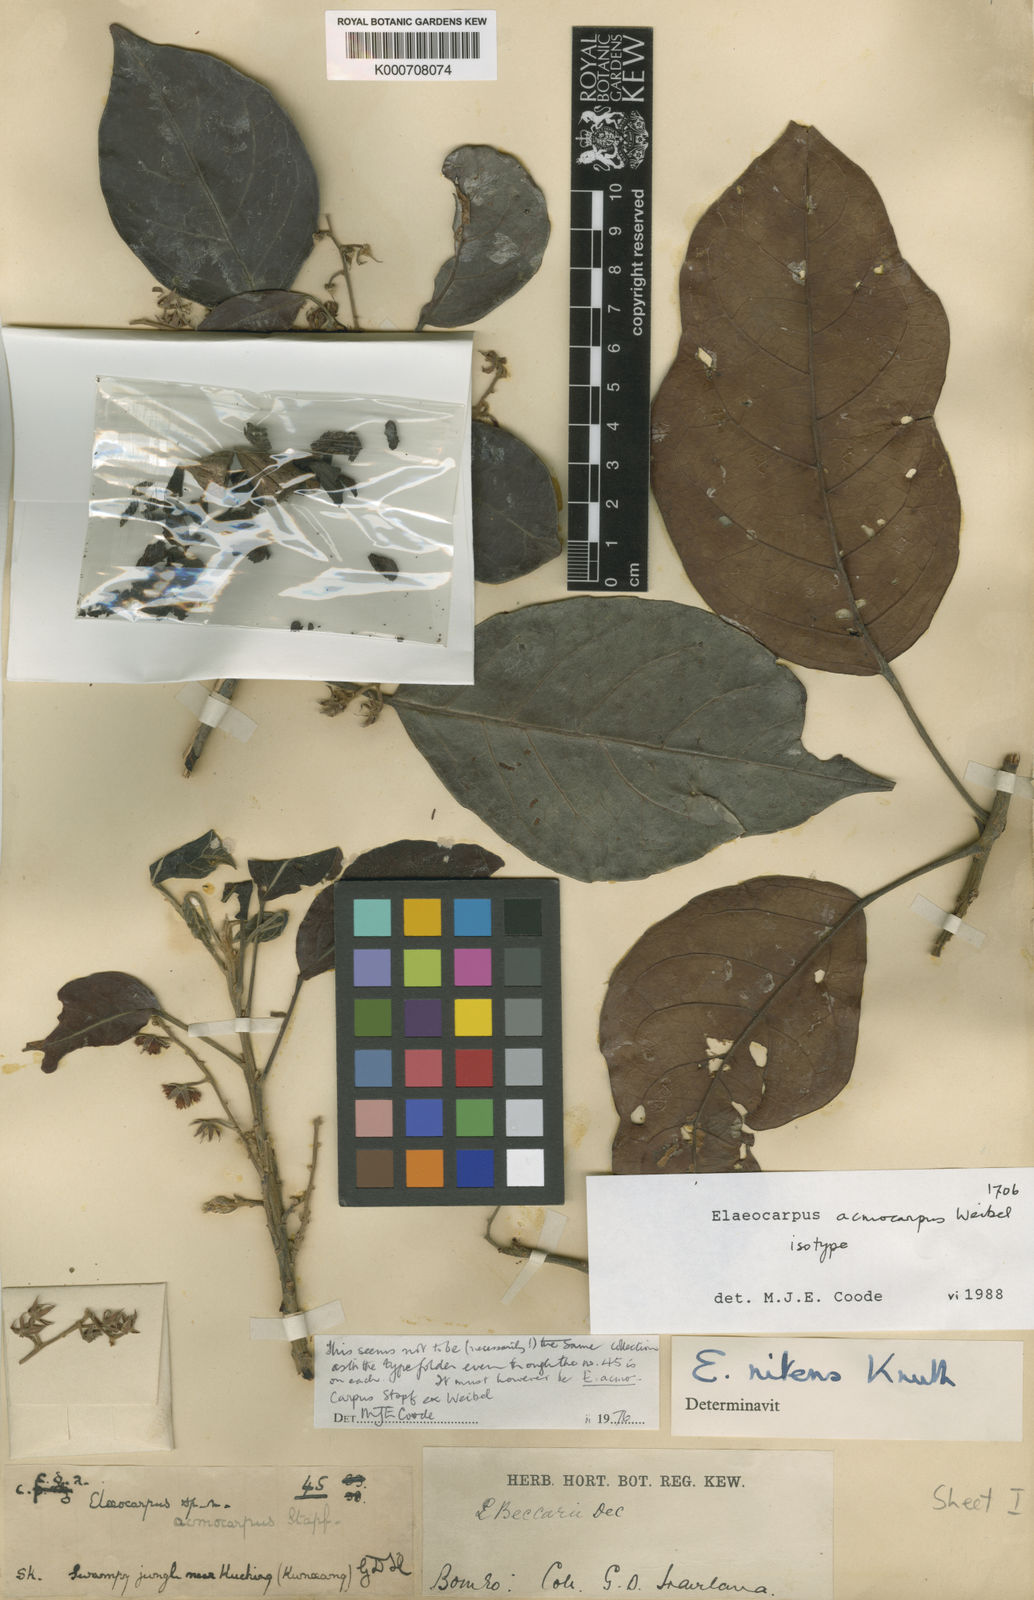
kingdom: Plantae
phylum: Tracheophyta
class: Magnoliopsida
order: Oxalidales
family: Elaeocarpaceae
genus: Elaeocarpus
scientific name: Elaeocarpus acmocarpus
